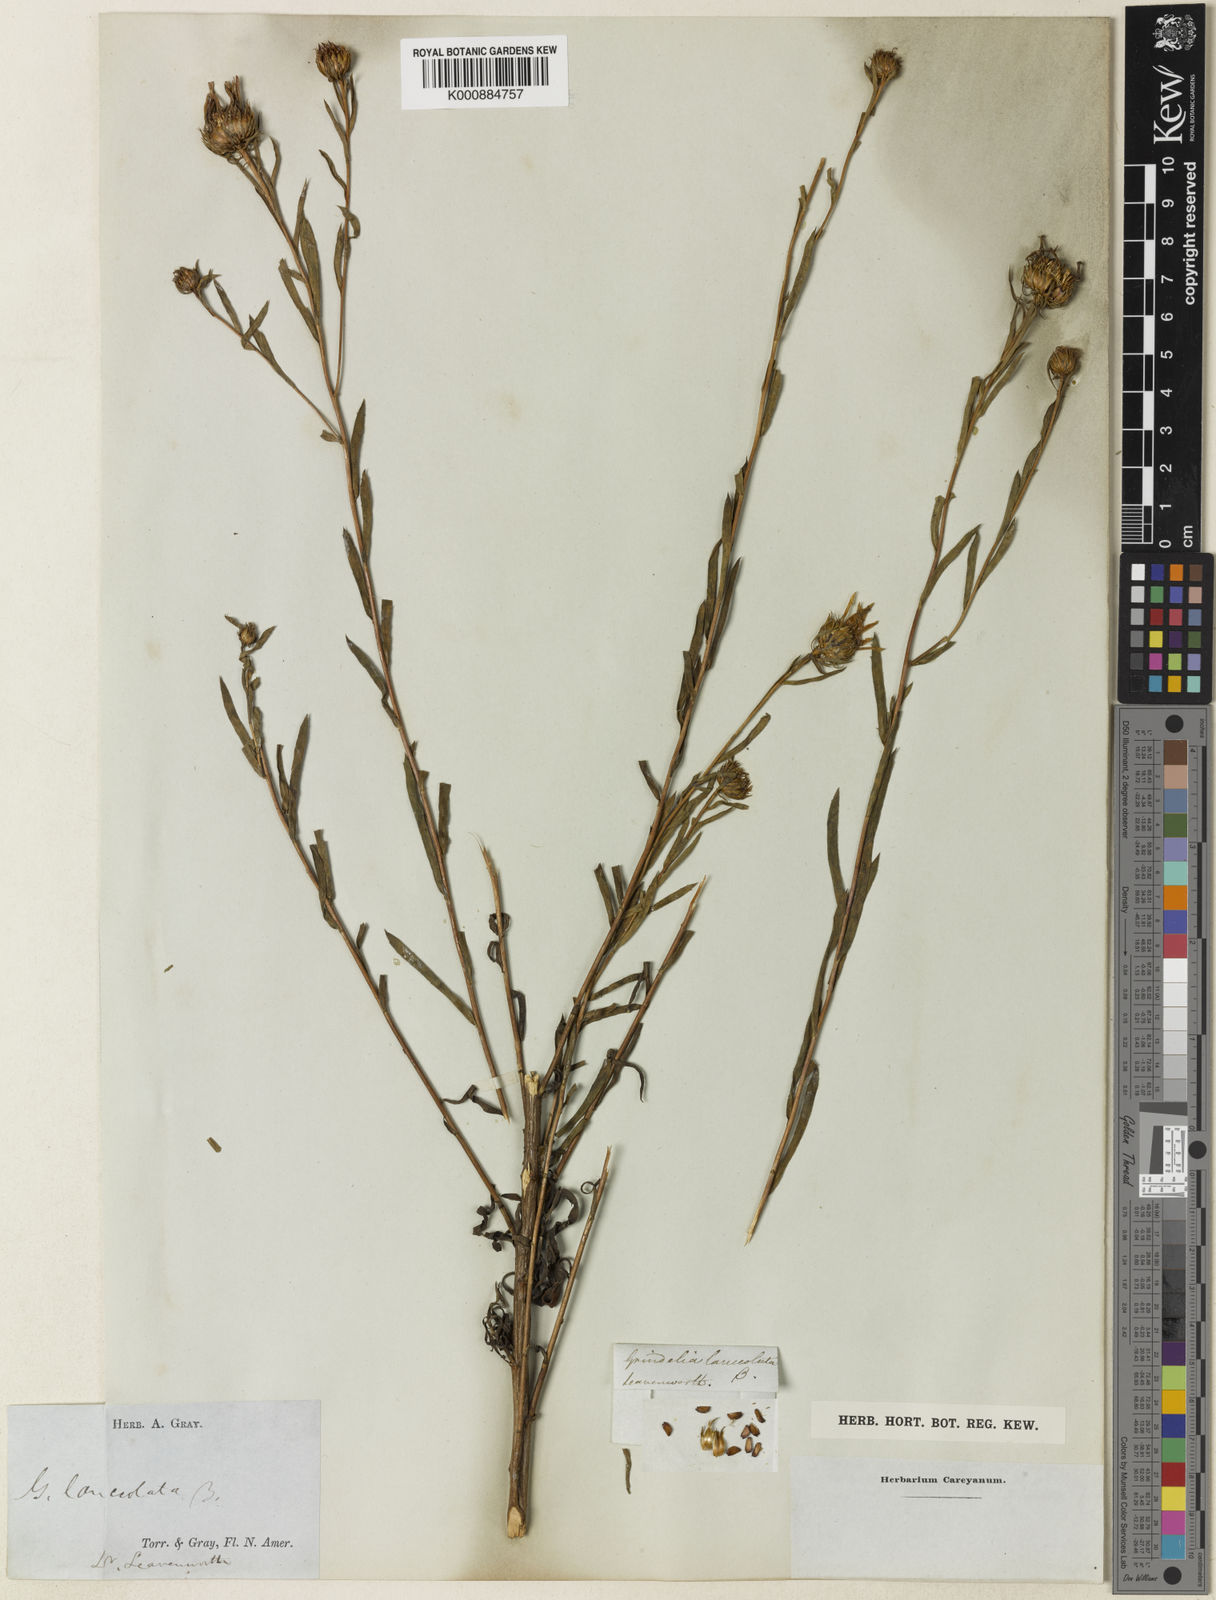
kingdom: Plantae
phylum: Tracheophyta
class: Magnoliopsida
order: Asterales
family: Asteraceae
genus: Grindelia
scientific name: Grindelia lanceolata
